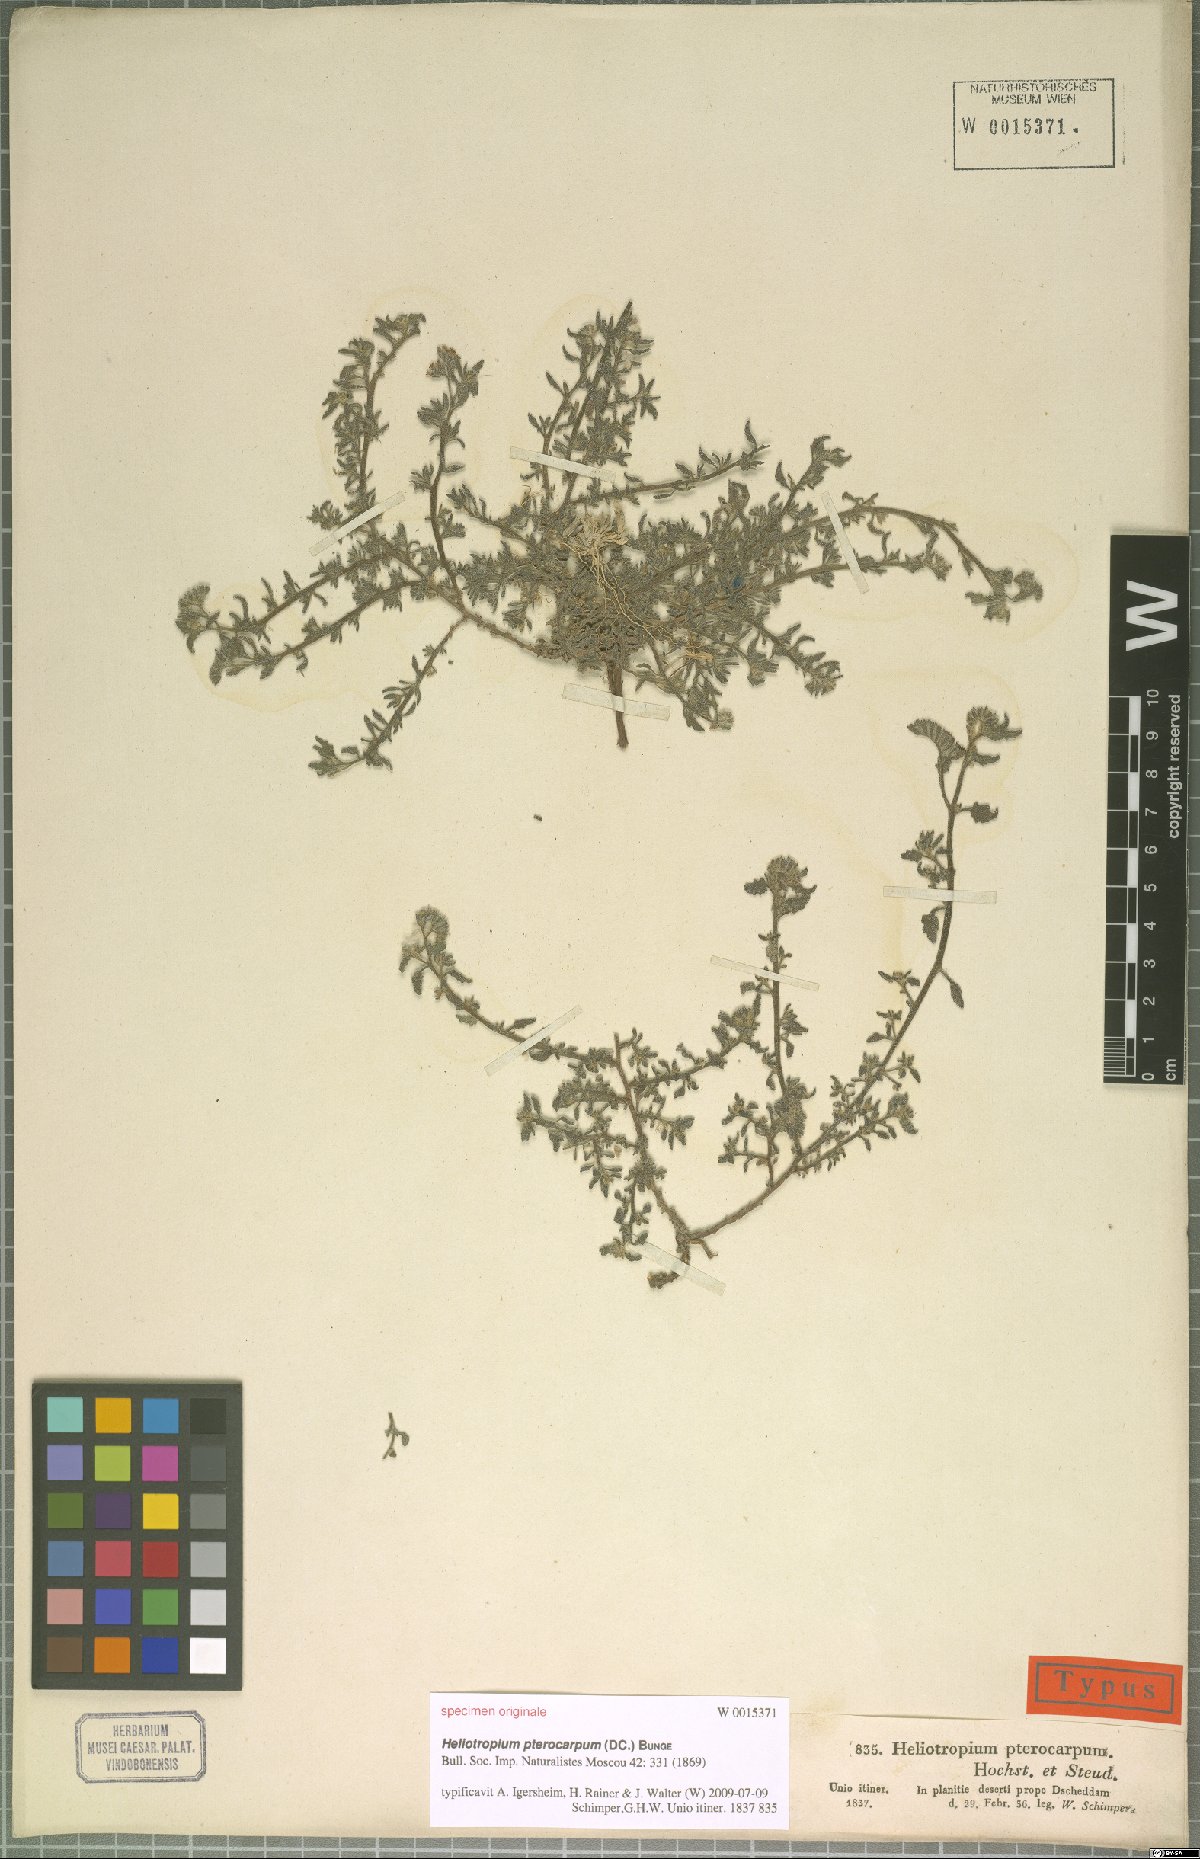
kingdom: Plantae
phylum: Tracheophyta
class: Magnoliopsida
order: Boraginales
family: Heliotropiaceae
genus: Heliotropium
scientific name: Heliotropium pterocarpum
